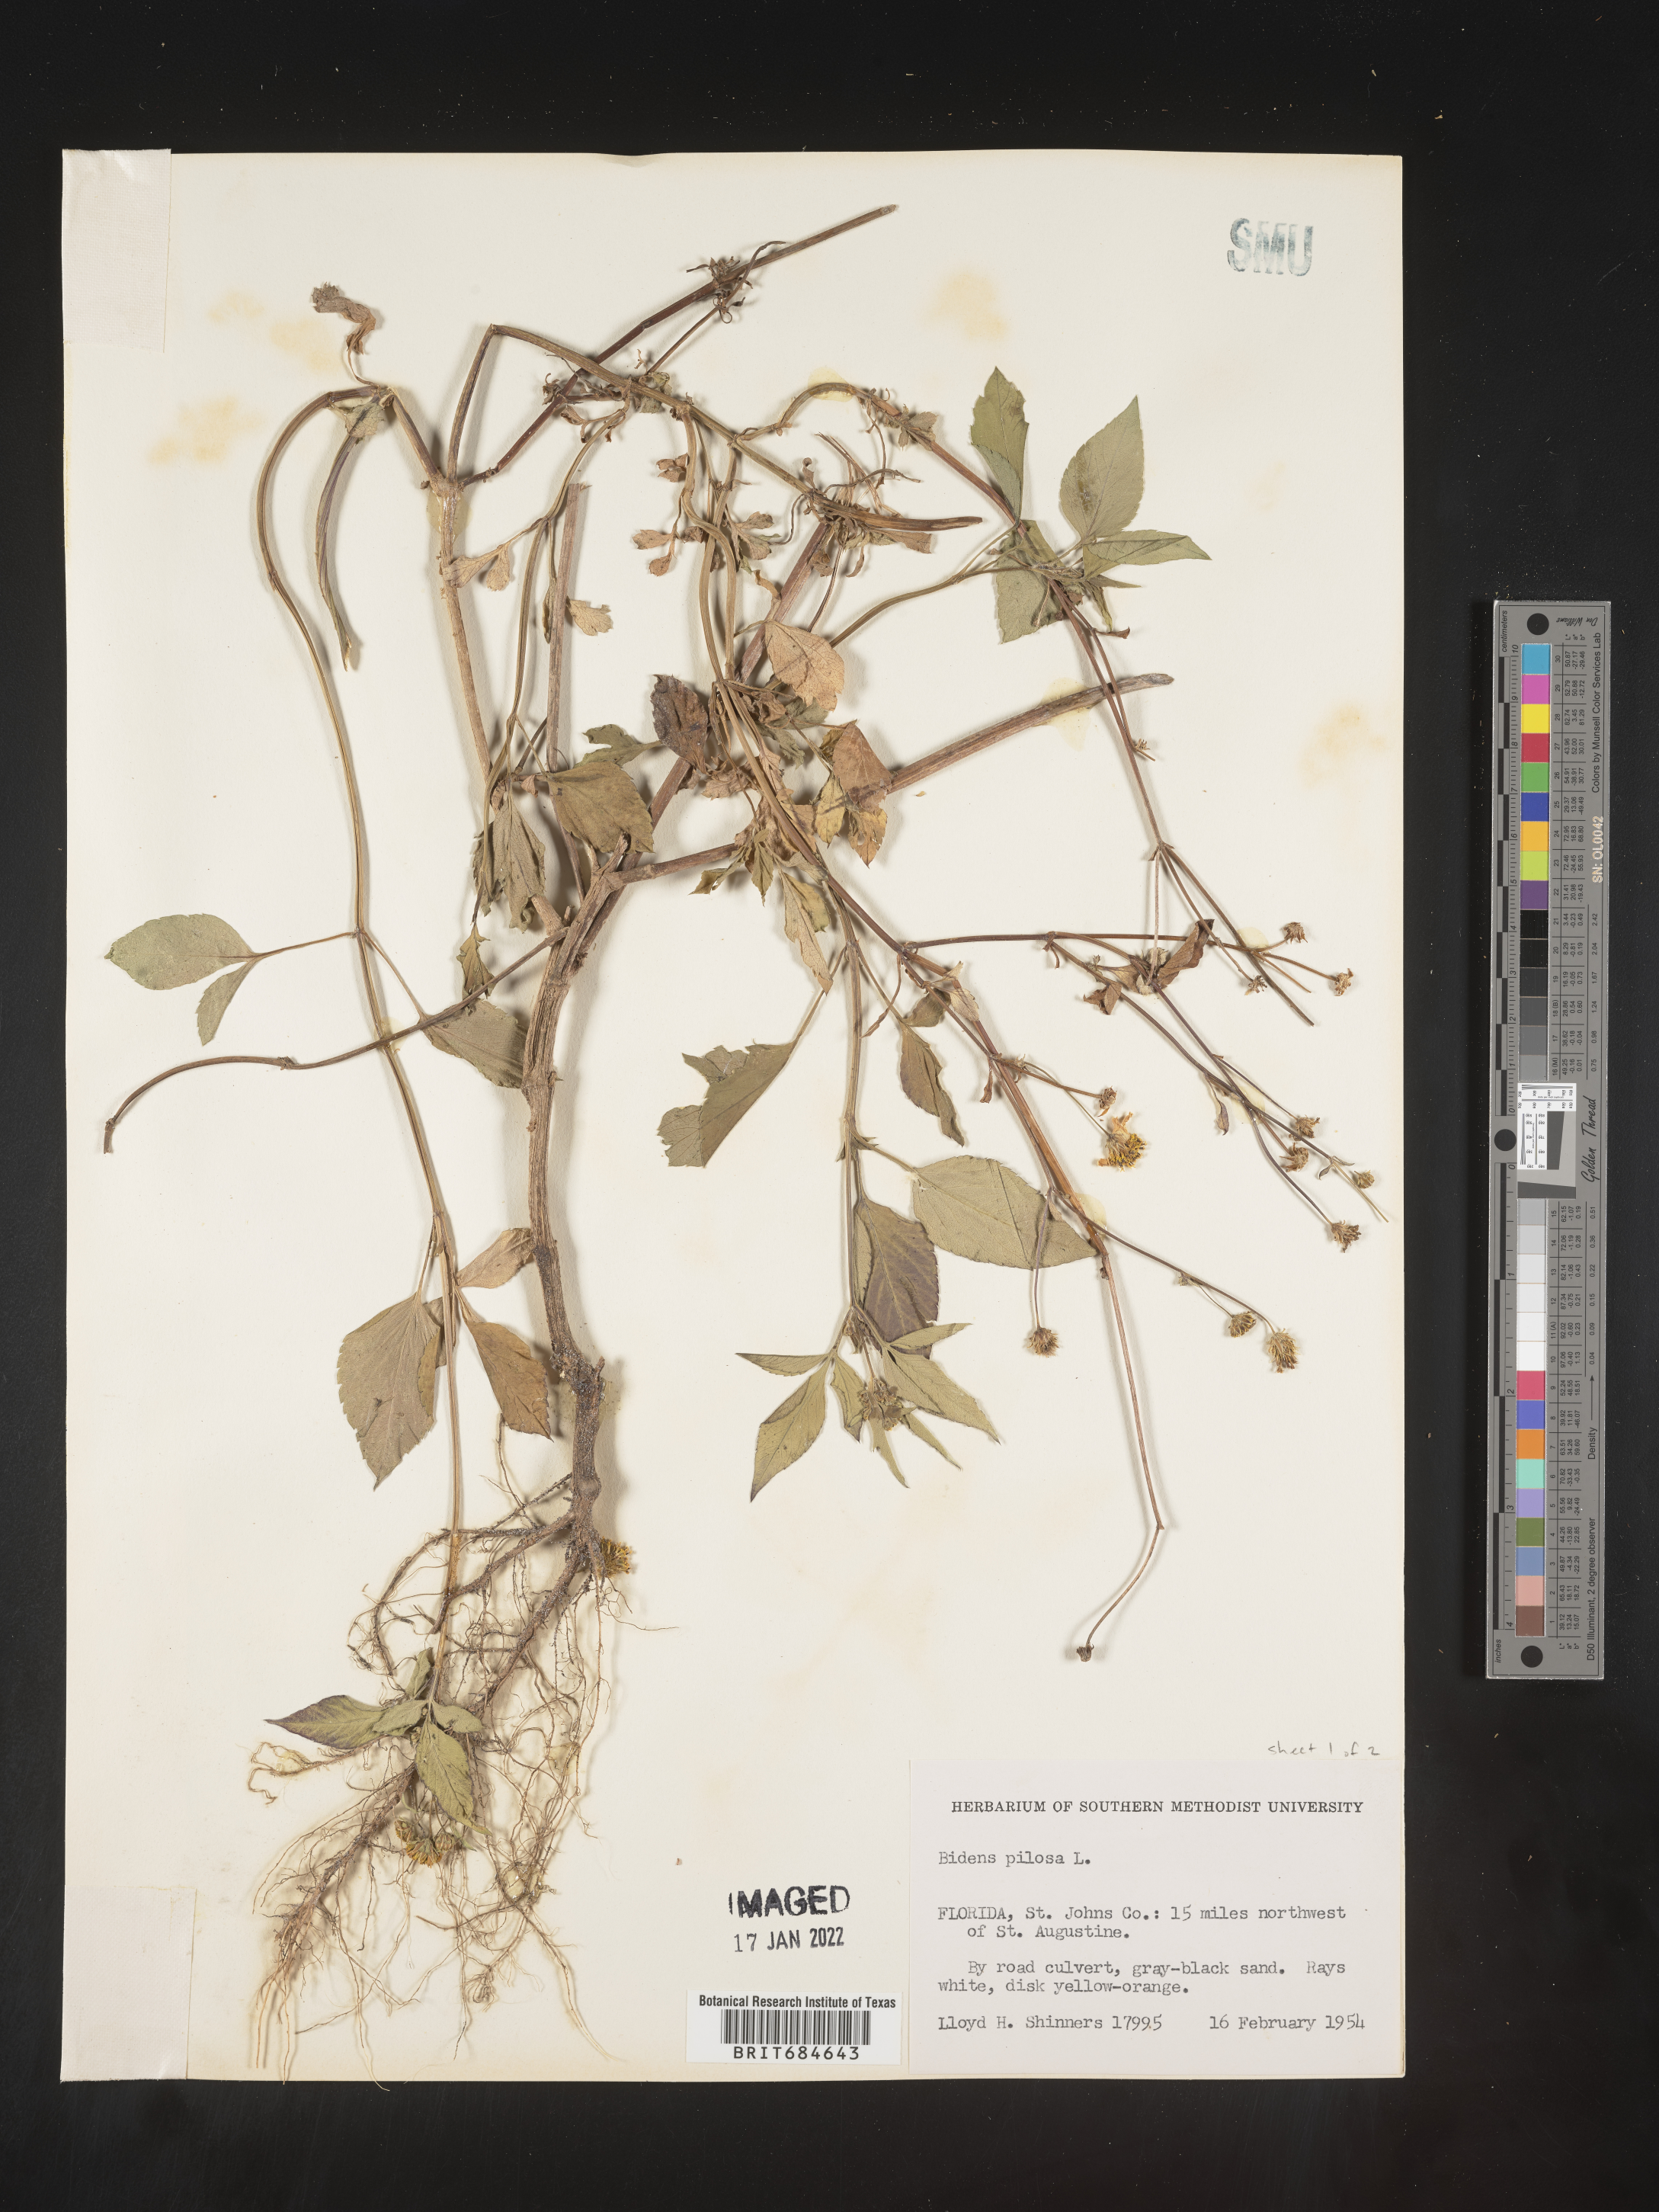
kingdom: Plantae
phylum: Tracheophyta
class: Magnoliopsida
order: Asterales
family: Asteraceae
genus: Bidens
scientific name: Bidens pilosa
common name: Black-jack
